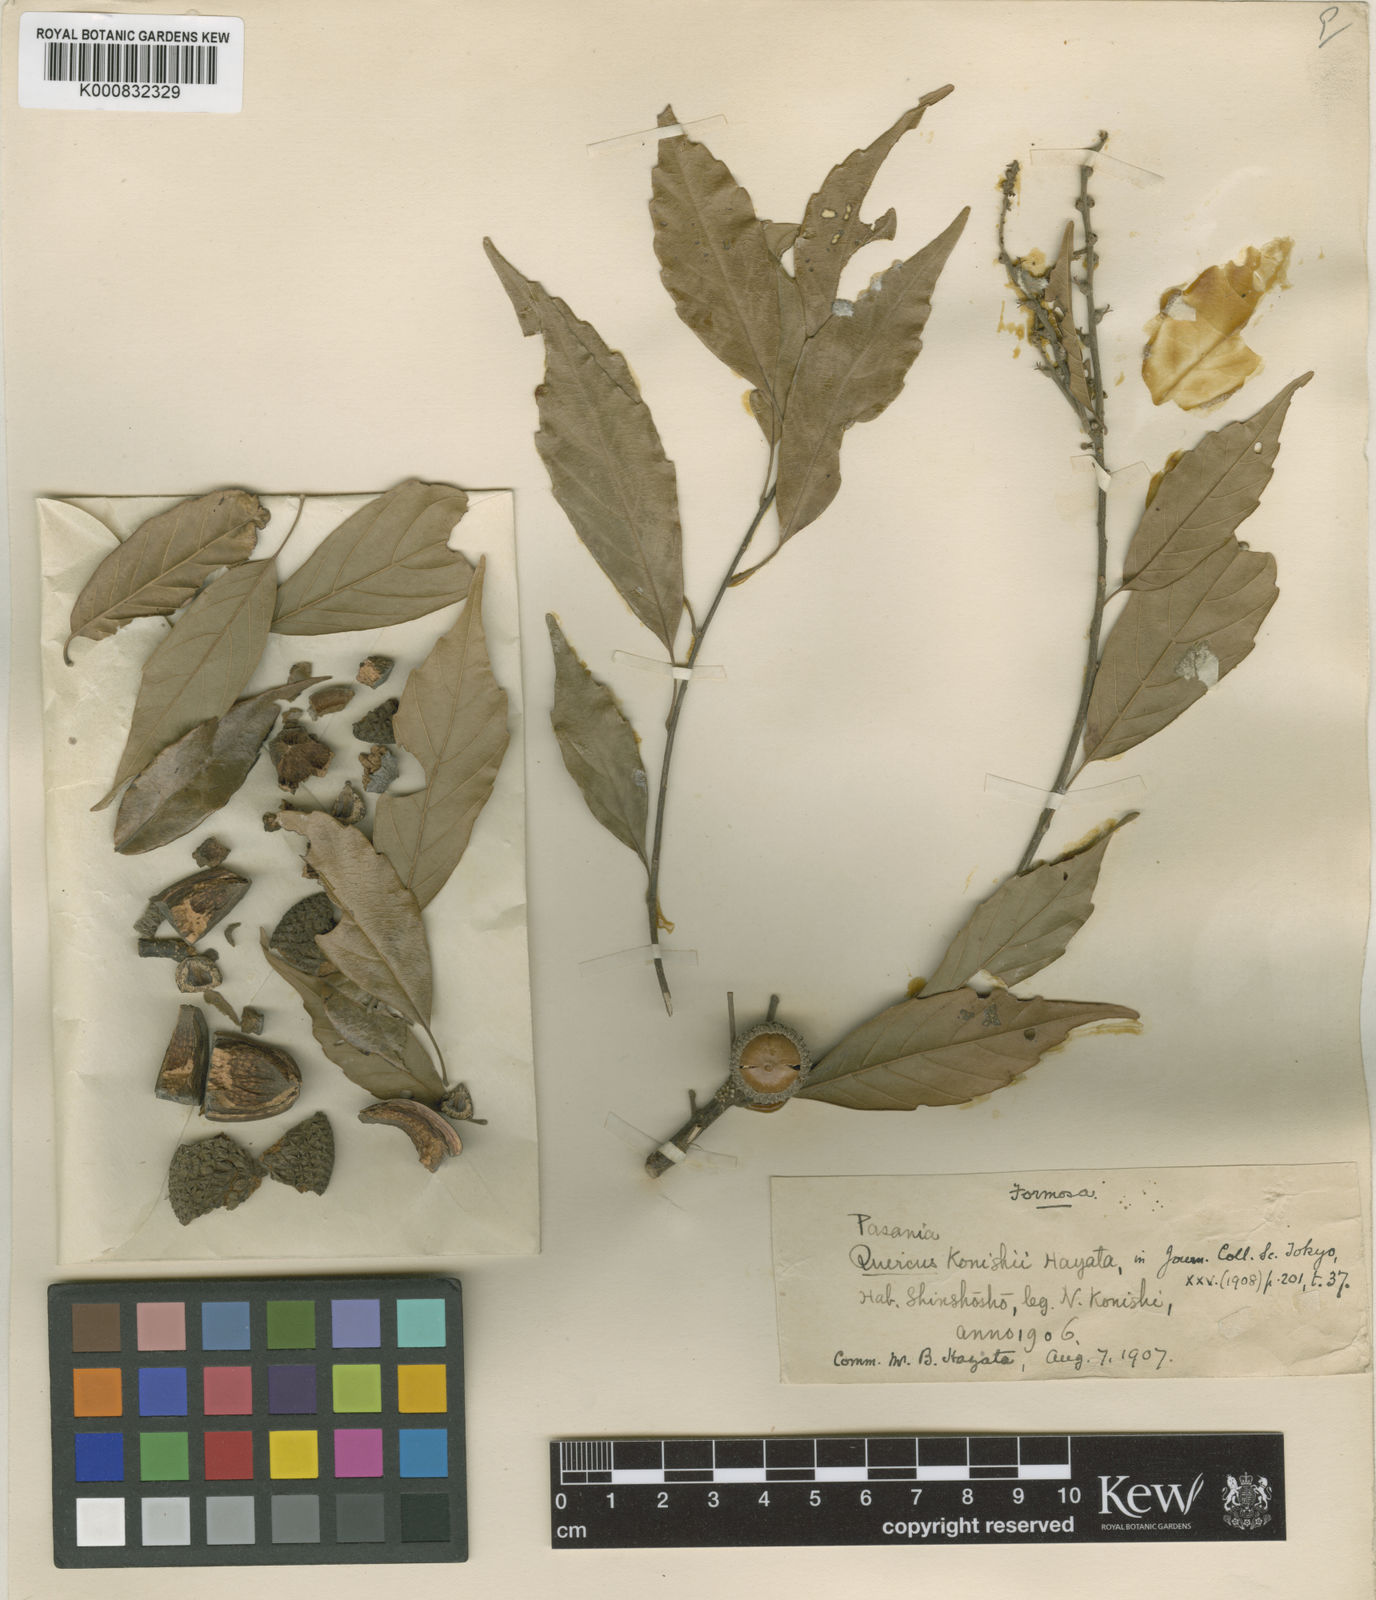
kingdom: Plantae
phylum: Tracheophyta
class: Magnoliopsida
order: Fagales
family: Fagaceae
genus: Lithocarpus
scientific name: Lithocarpus konishii
